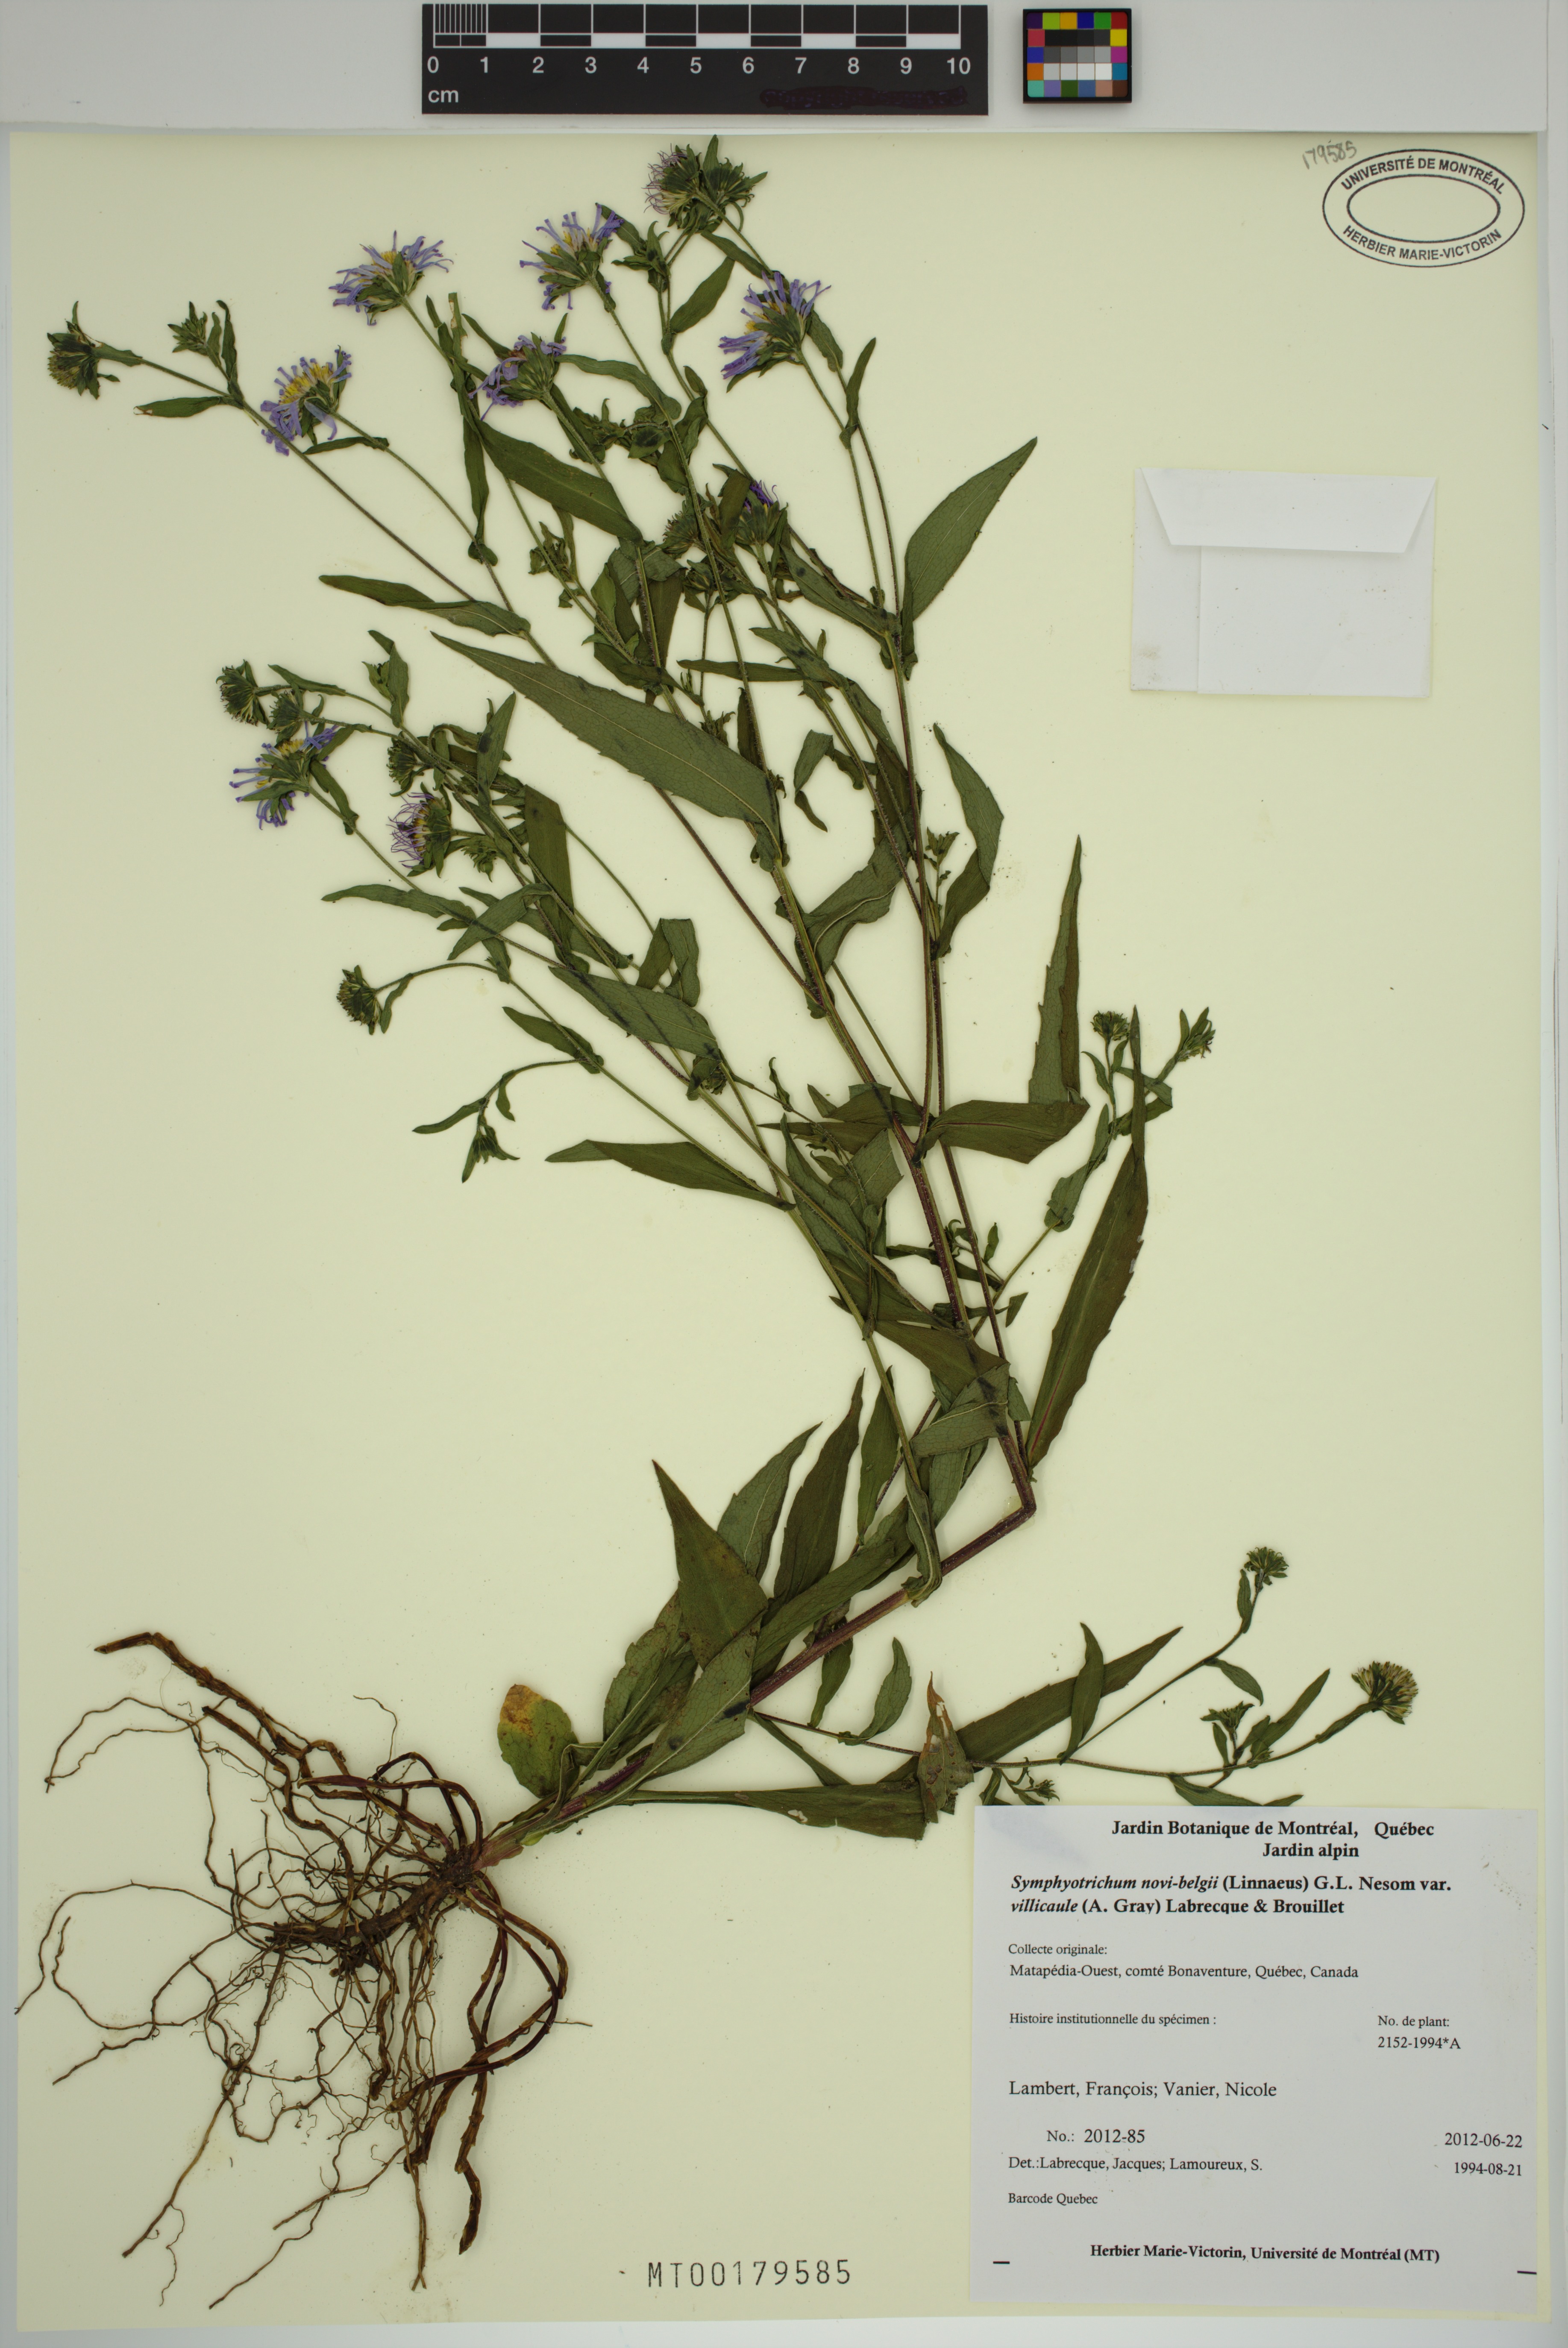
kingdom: Plantae
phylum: Tracheophyta
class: Magnoliopsida
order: Asterales
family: Asteraceae
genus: Symphyotrichum
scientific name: Symphyotrichum novi-belgii
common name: Michaelmas daisy
